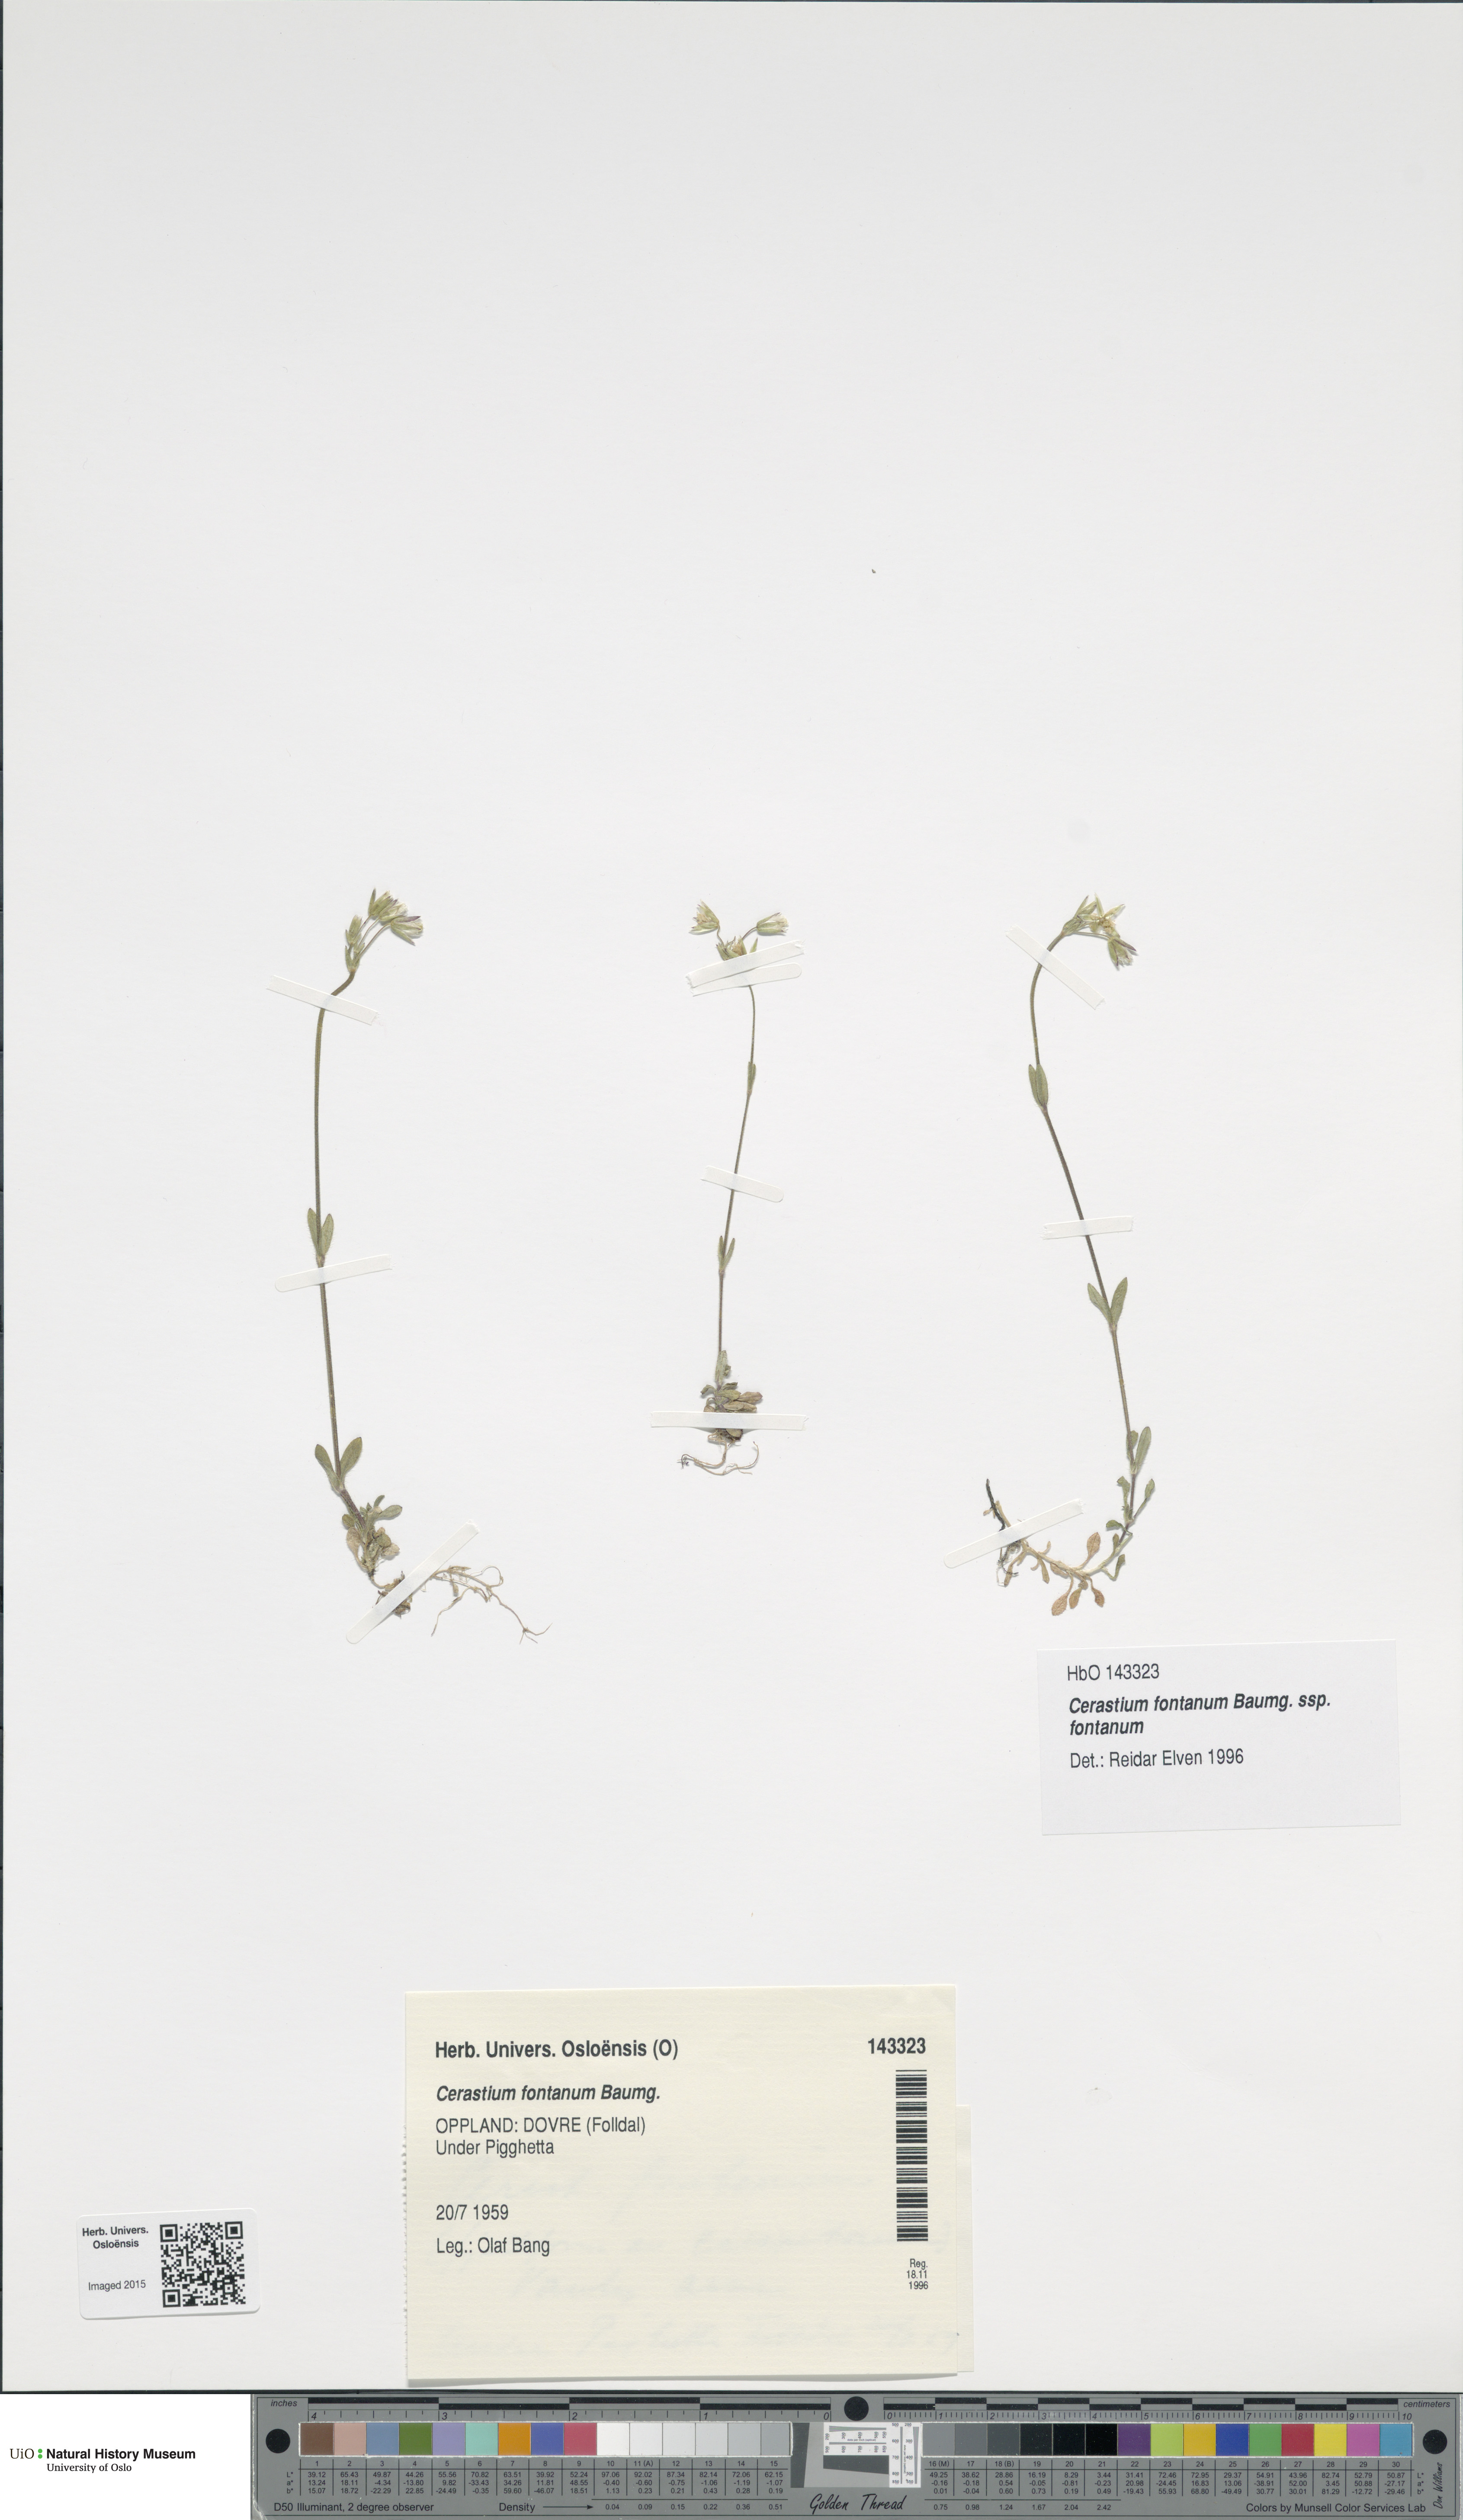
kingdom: Plantae
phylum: Tracheophyta
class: Magnoliopsida
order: Caryophyllales
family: Caryophyllaceae
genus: Cerastium
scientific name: Cerastium fontanum
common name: Common mouse-ear
